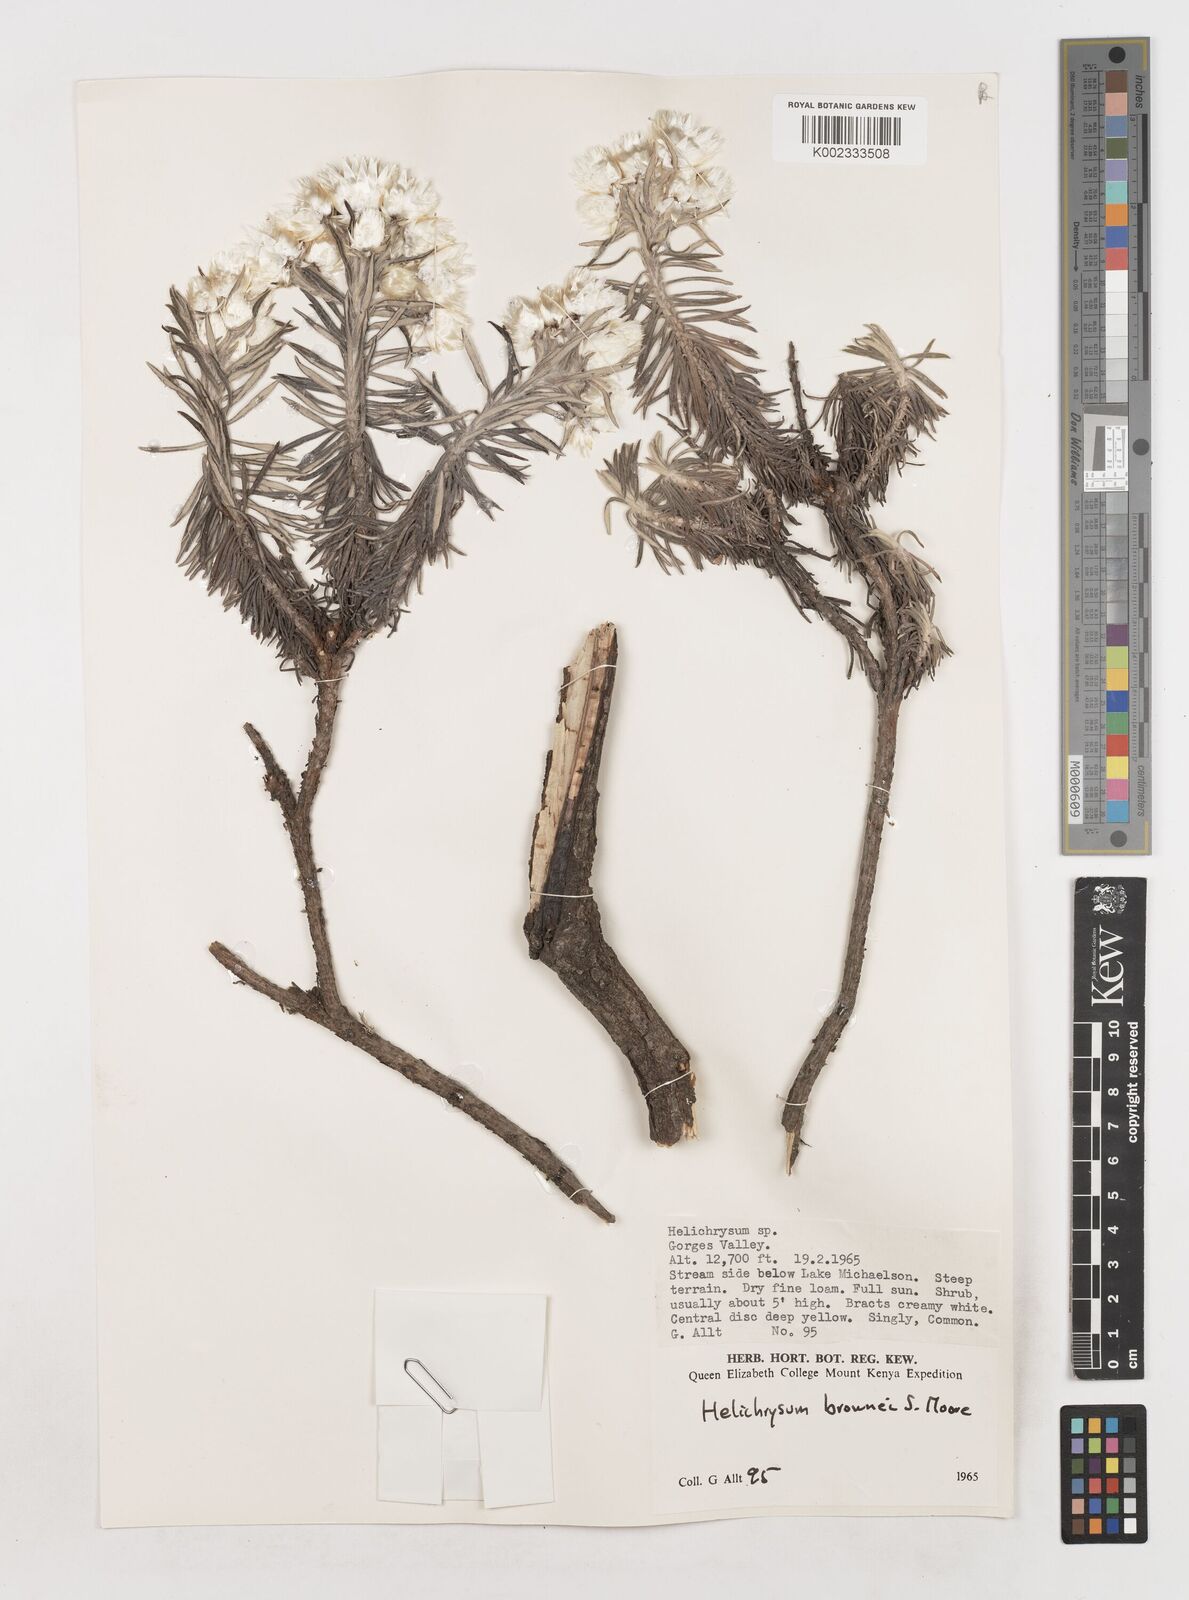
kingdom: Plantae
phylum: Tracheophyta
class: Magnoliopsida
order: Asterales
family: Asteraceae
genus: Helichrysum
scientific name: Helichrysum brownei
